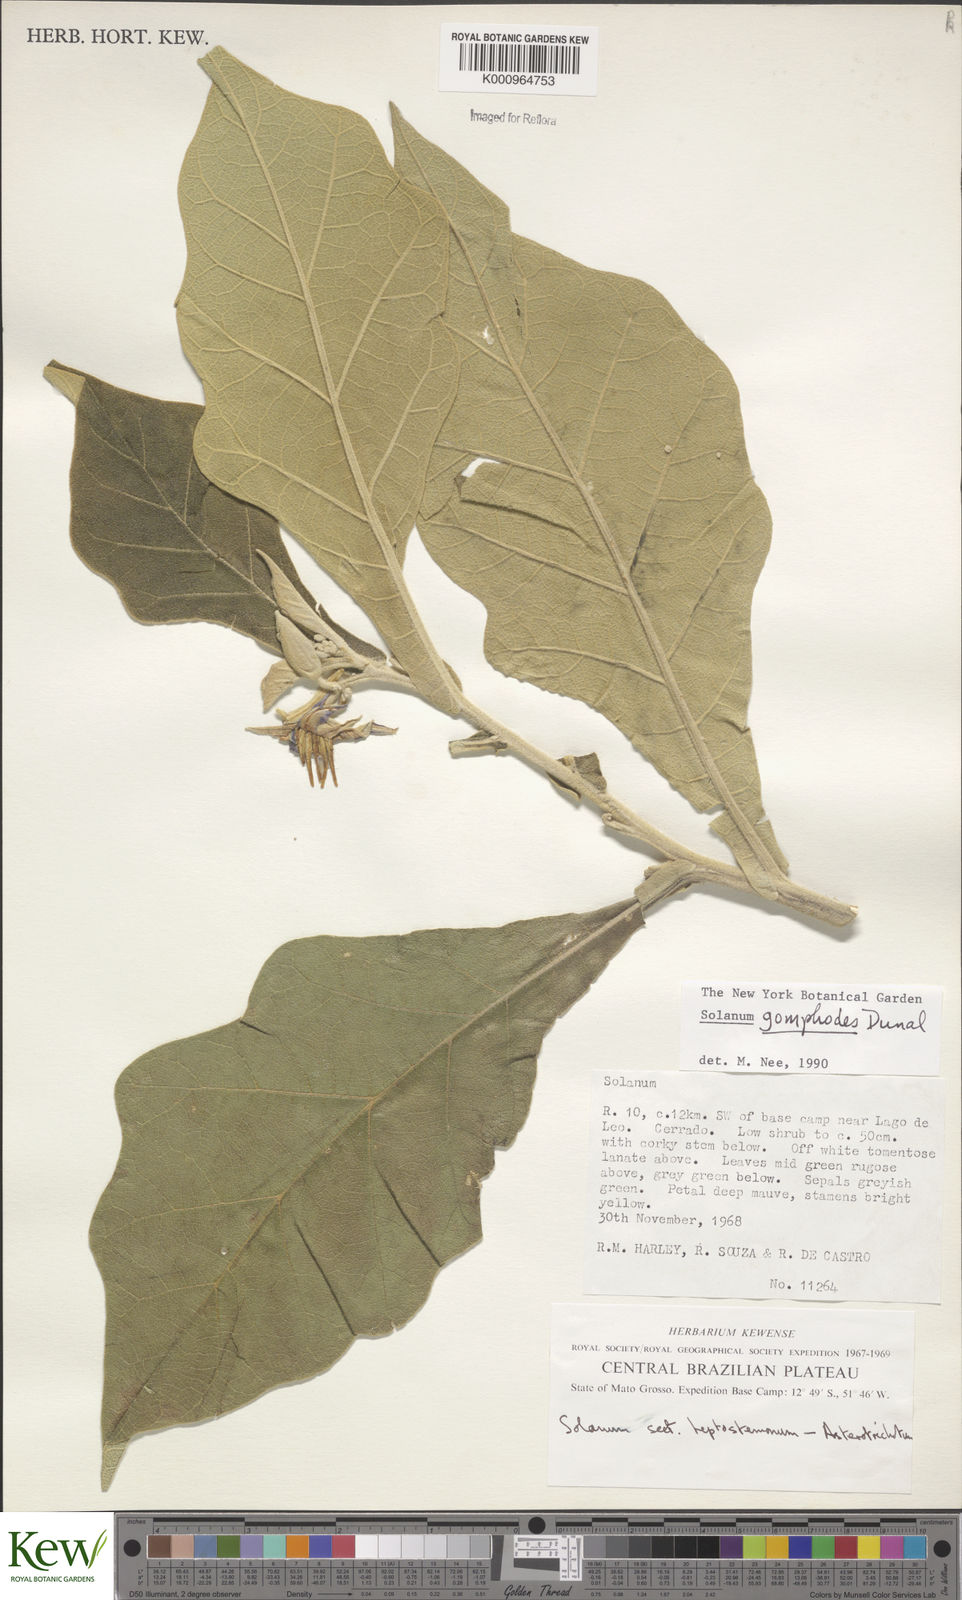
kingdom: Plantae
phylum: Tracheophyta
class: Magnoliopsida
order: Solanales
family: Solanaceae
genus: Solanum
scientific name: Solanum gomphodes
